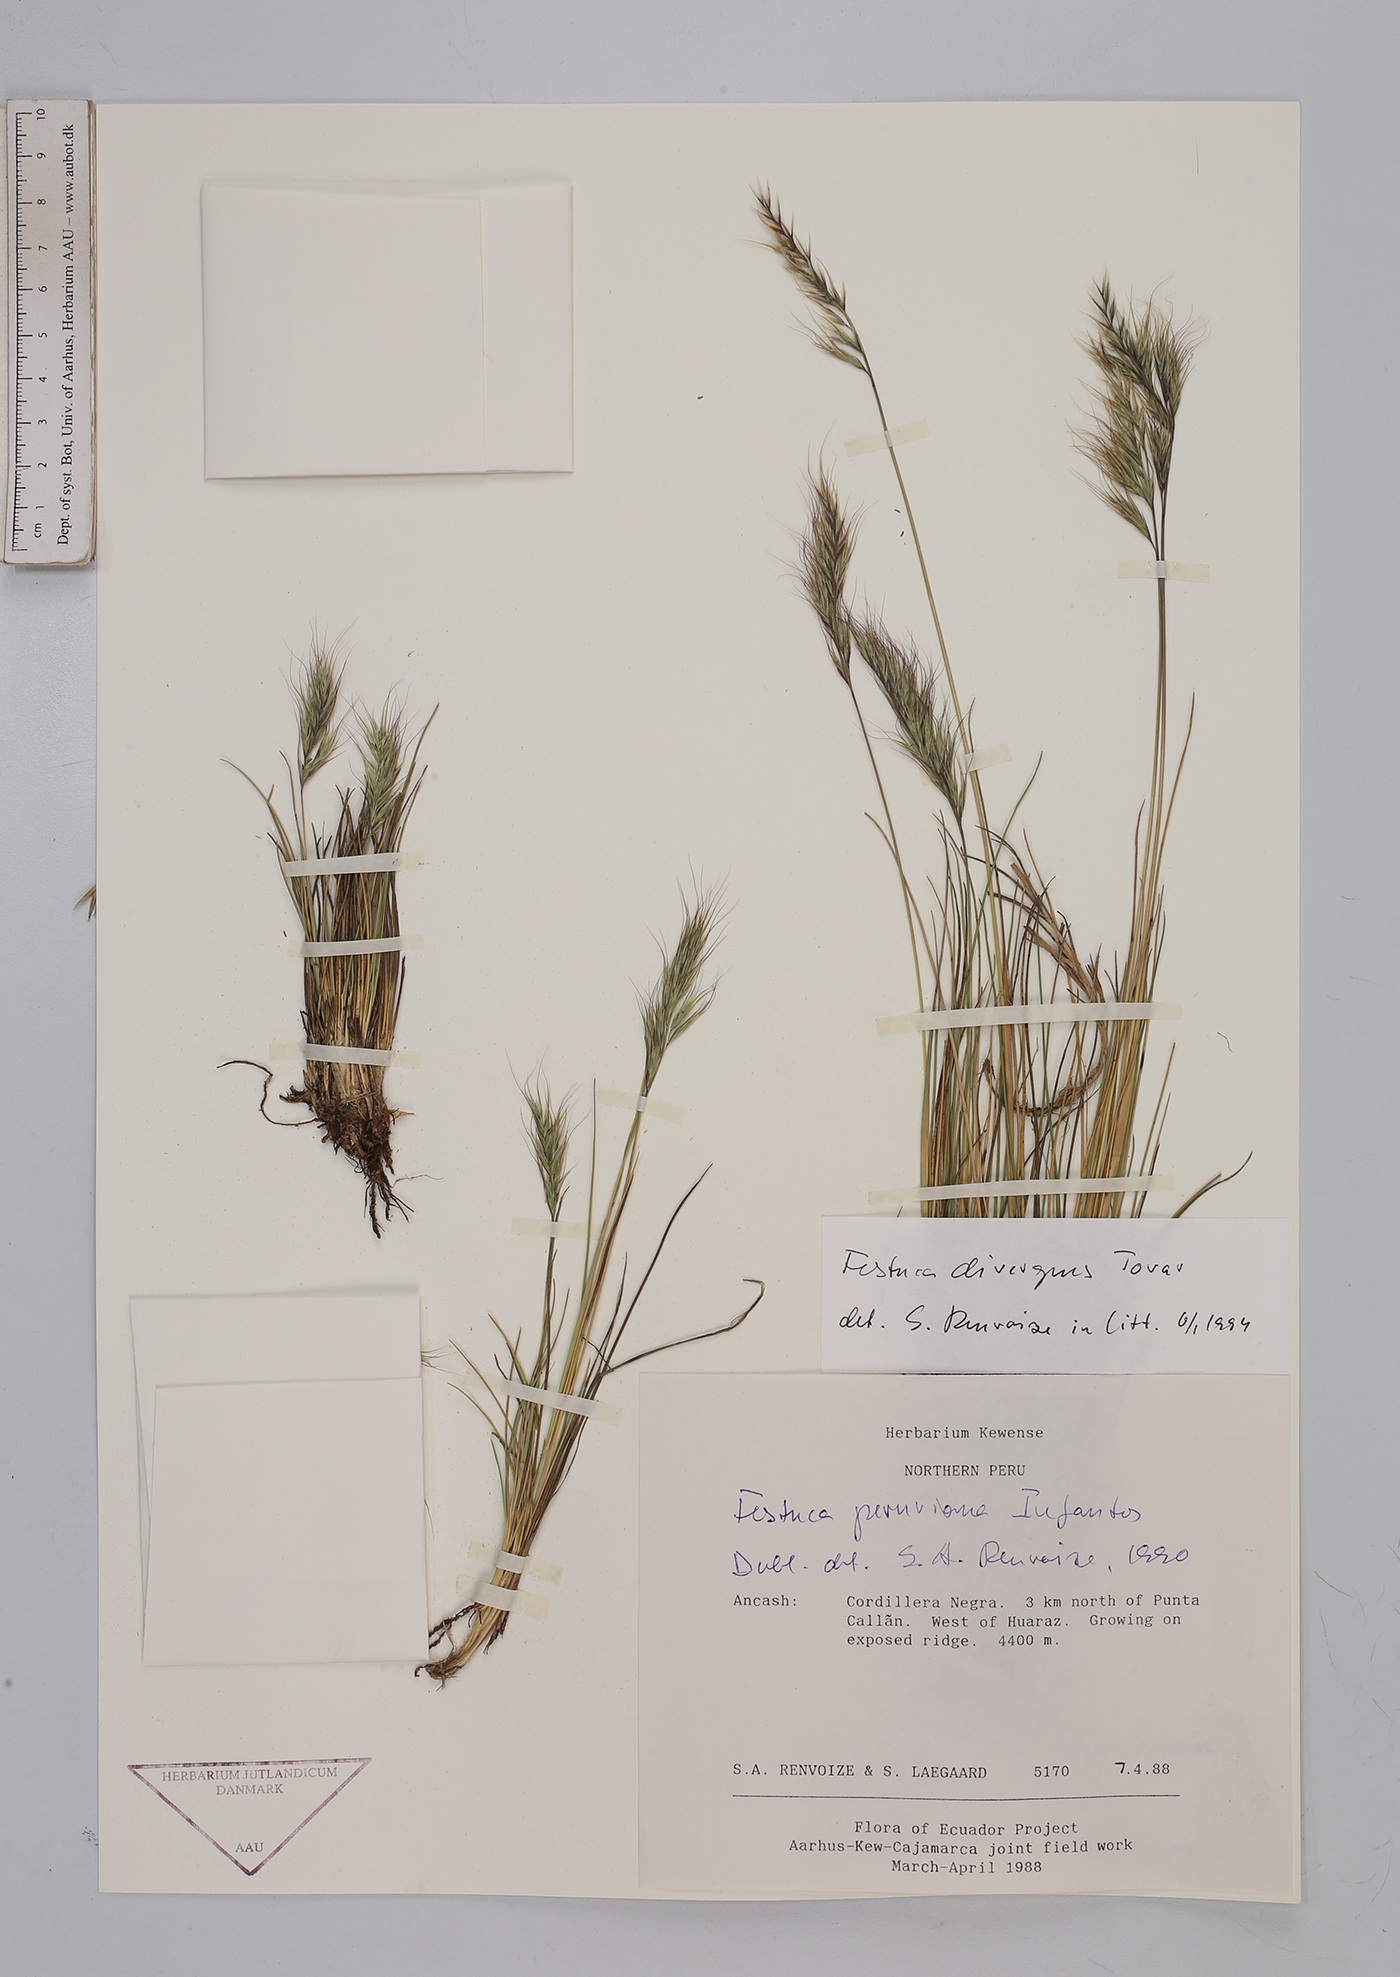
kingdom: Plantae
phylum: Tracheophyta
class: Liliopsida
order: Poales
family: Poaceae
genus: Festuca
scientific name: Festuca divergens
